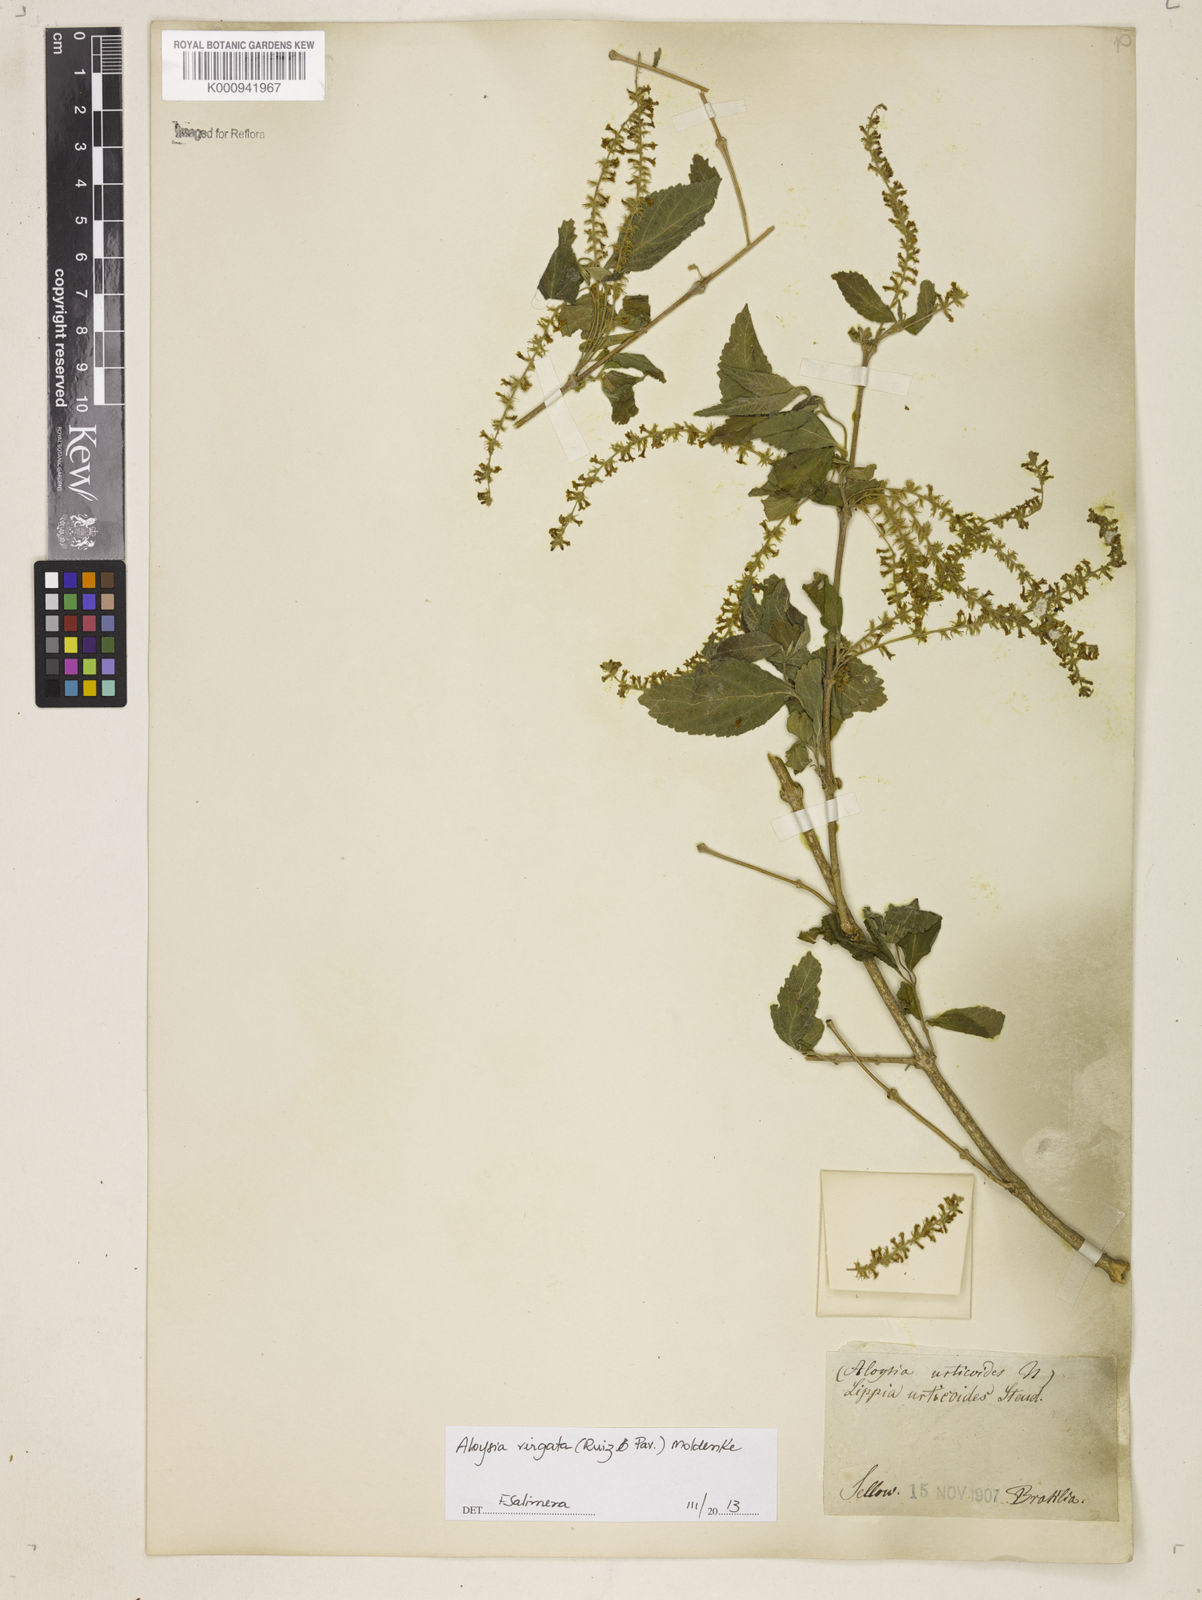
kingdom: Plantae
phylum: Tracheophyta
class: Magnoliopsida
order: Lamiales
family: Verbenaceae
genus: Aloysia
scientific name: Aloysia
